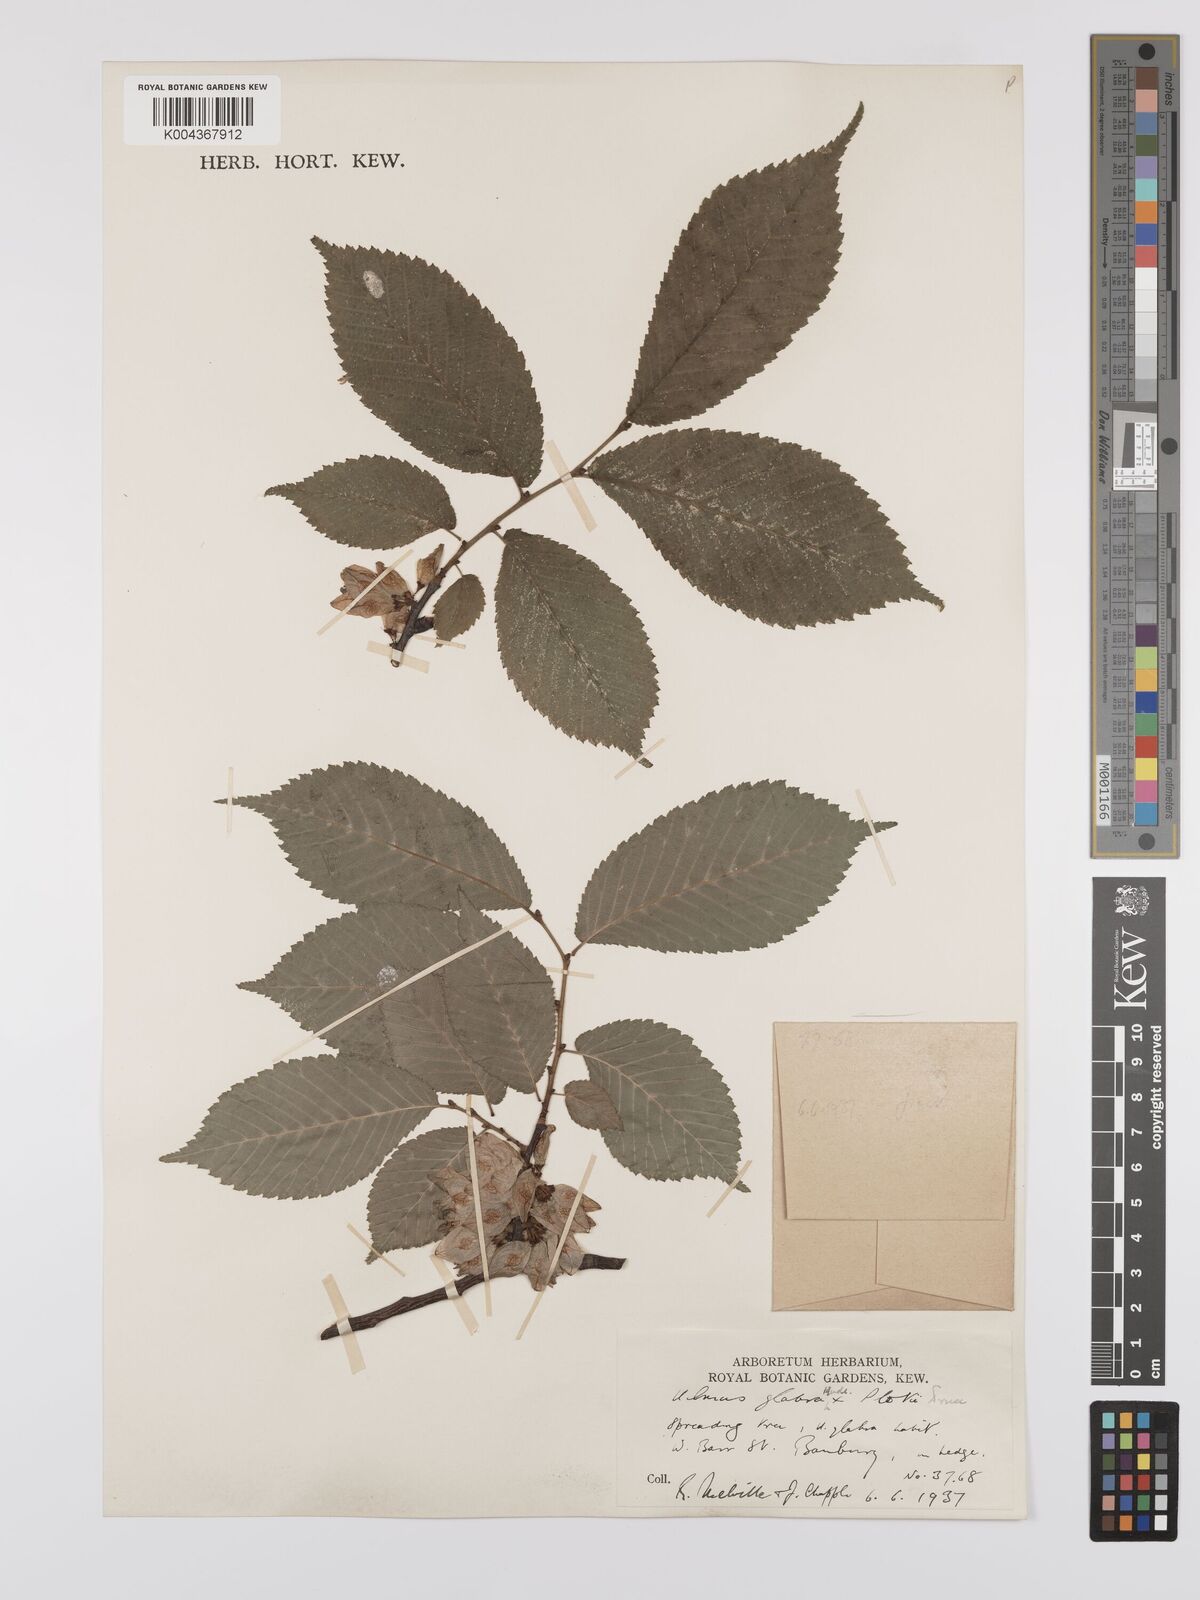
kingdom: Plantae
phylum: Tracheophyta
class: Magnoliopsida
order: Rosales
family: Ulmaceae
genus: Ulmus
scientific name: Ulmus
